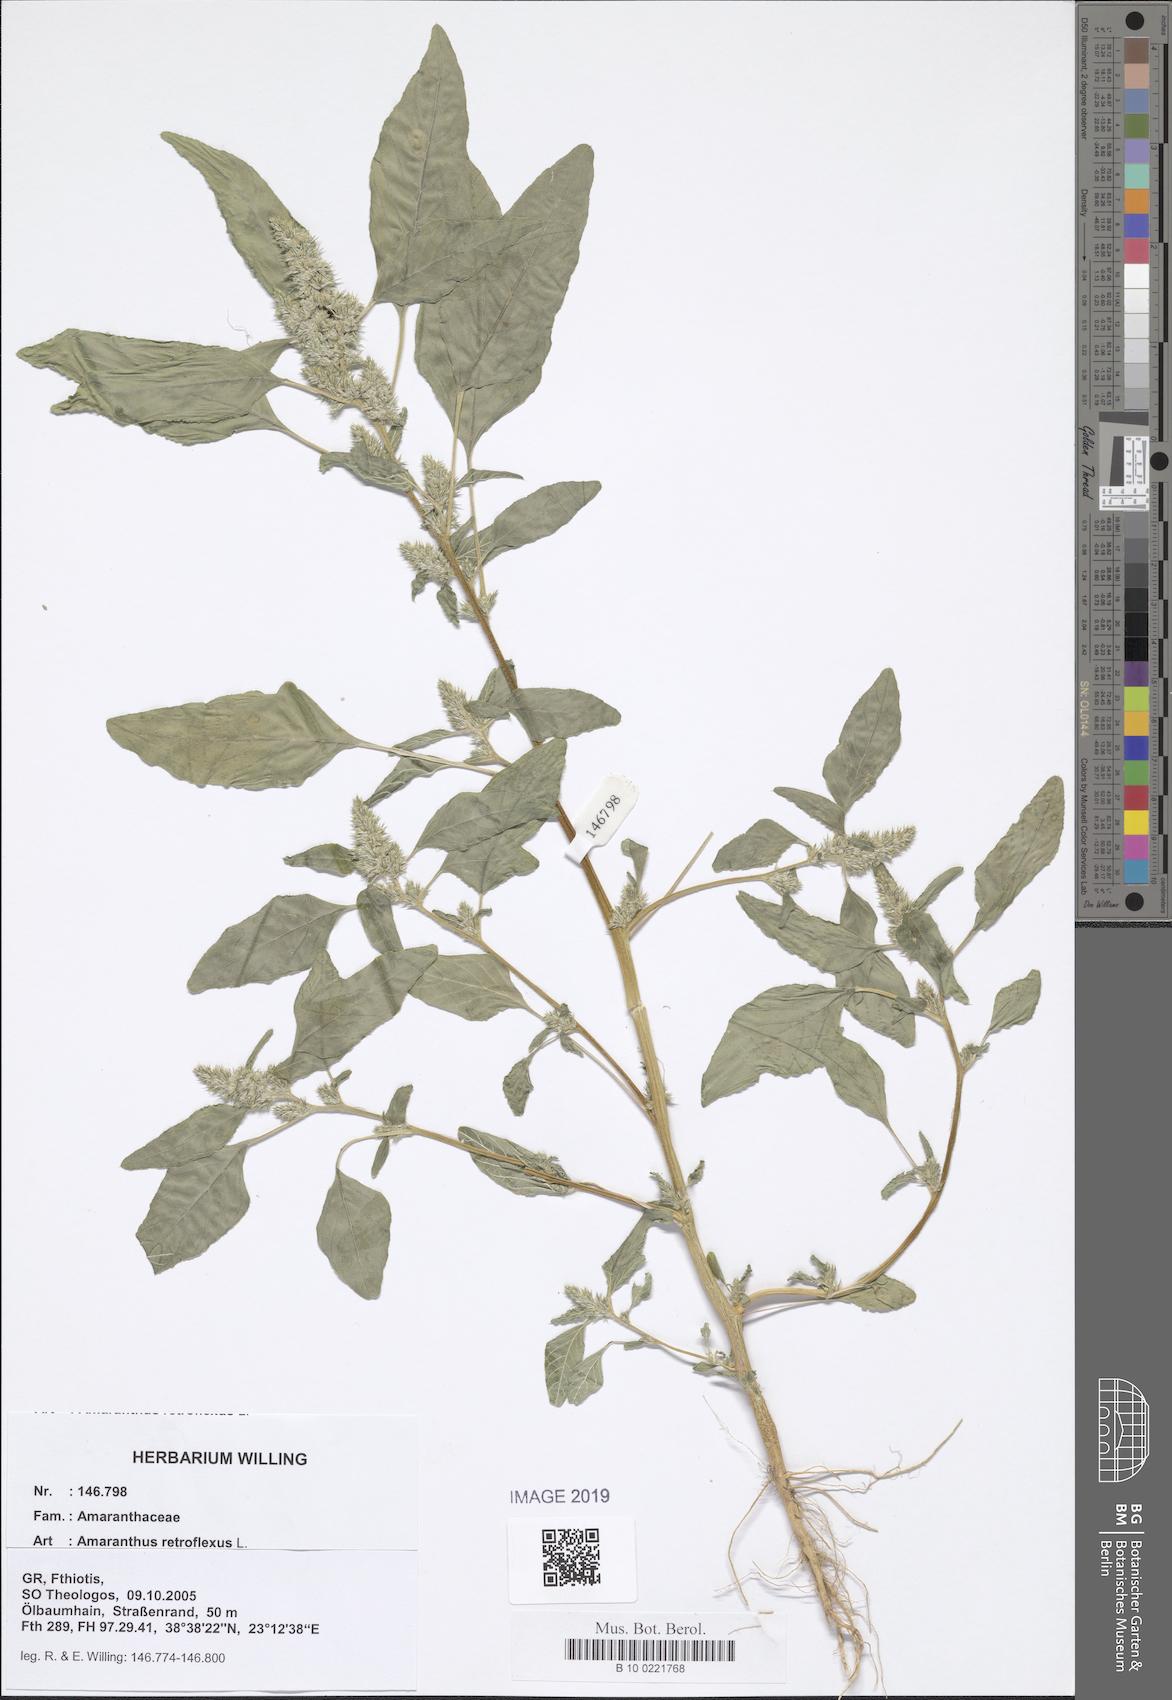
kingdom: Plantae
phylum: Tracheophyta
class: Magnoliopsida
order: Caryophyllales
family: Amaranthaceae
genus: Amaranthus
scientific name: Amaranthus retroflexus
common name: Redroot amaranth
